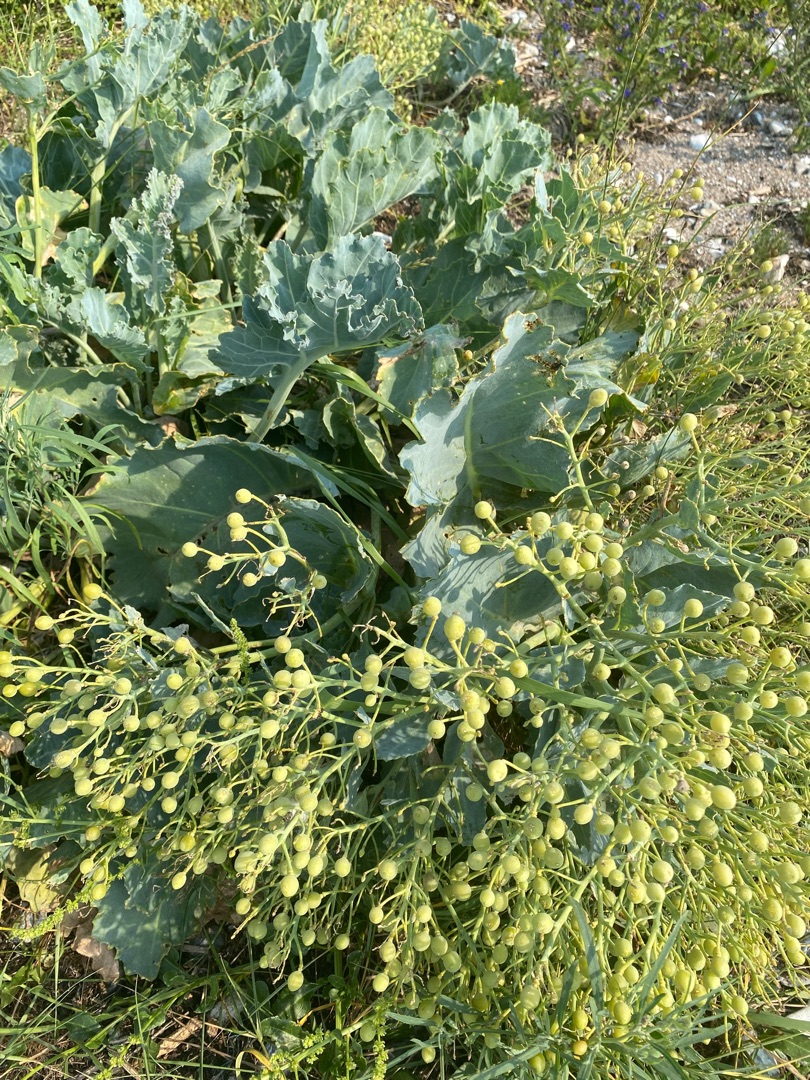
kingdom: Plantae
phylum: Tracheophyta
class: Magnoliopsida
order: Brassicales
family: Brassicaceae
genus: Crambe
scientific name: Crambe maritima
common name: Strandkål
